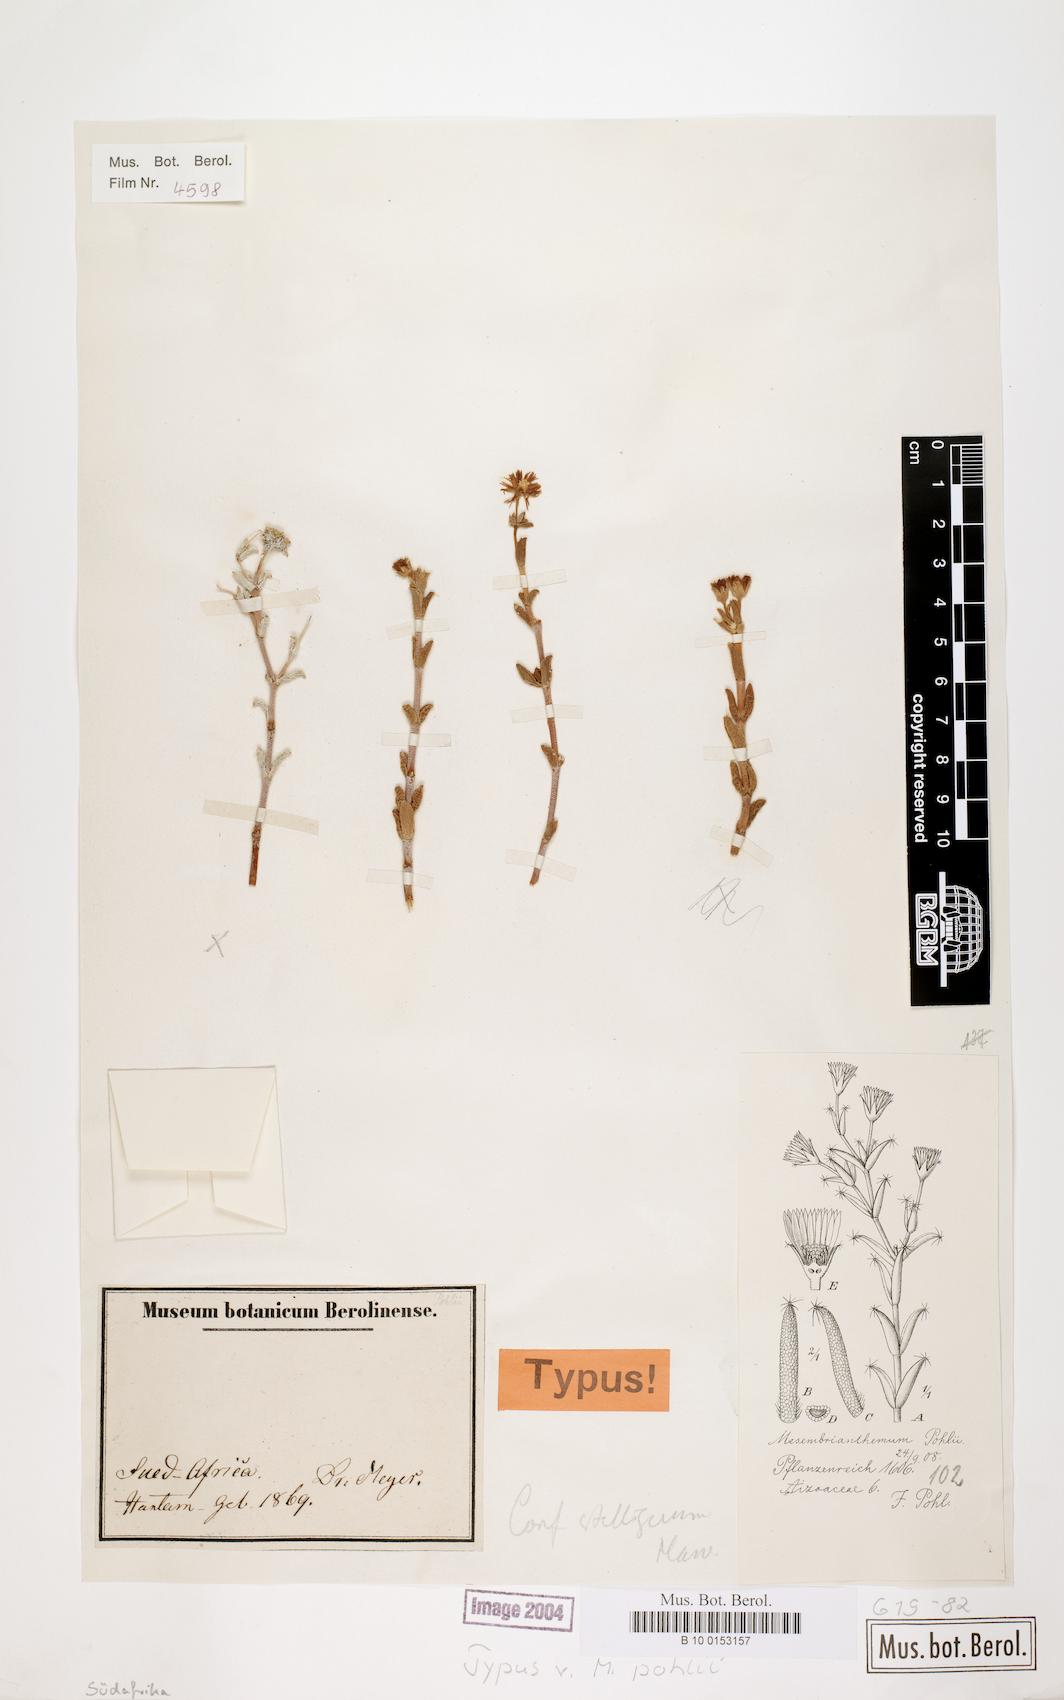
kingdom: Plantae
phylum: Tracheophyta
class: Magnoliopsida
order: Caryophyllales
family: Aizoaceae
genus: Mesembryanthemum
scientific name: Mesembryanthemum
